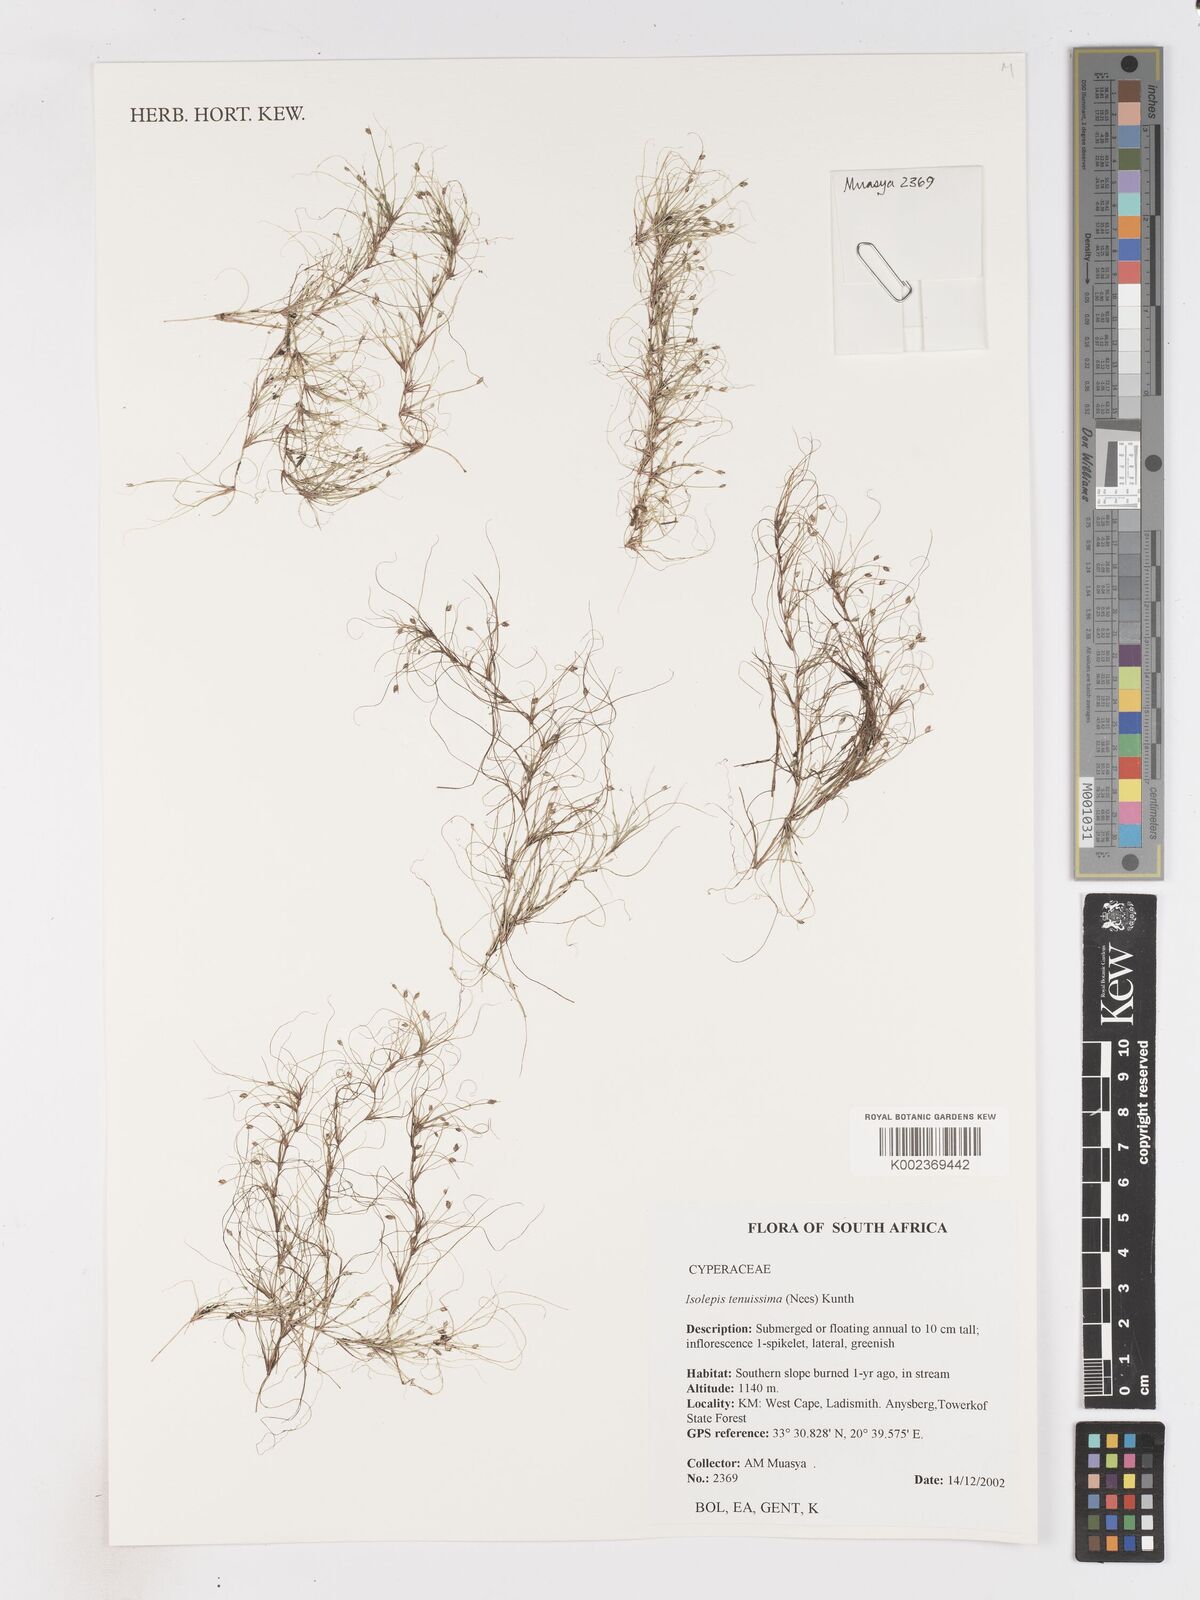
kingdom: Plantae
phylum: Tracheophyta
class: Liliopsida
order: Poales
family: Cyperaceae
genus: Isolepis
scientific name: Isolepis tenuissima
